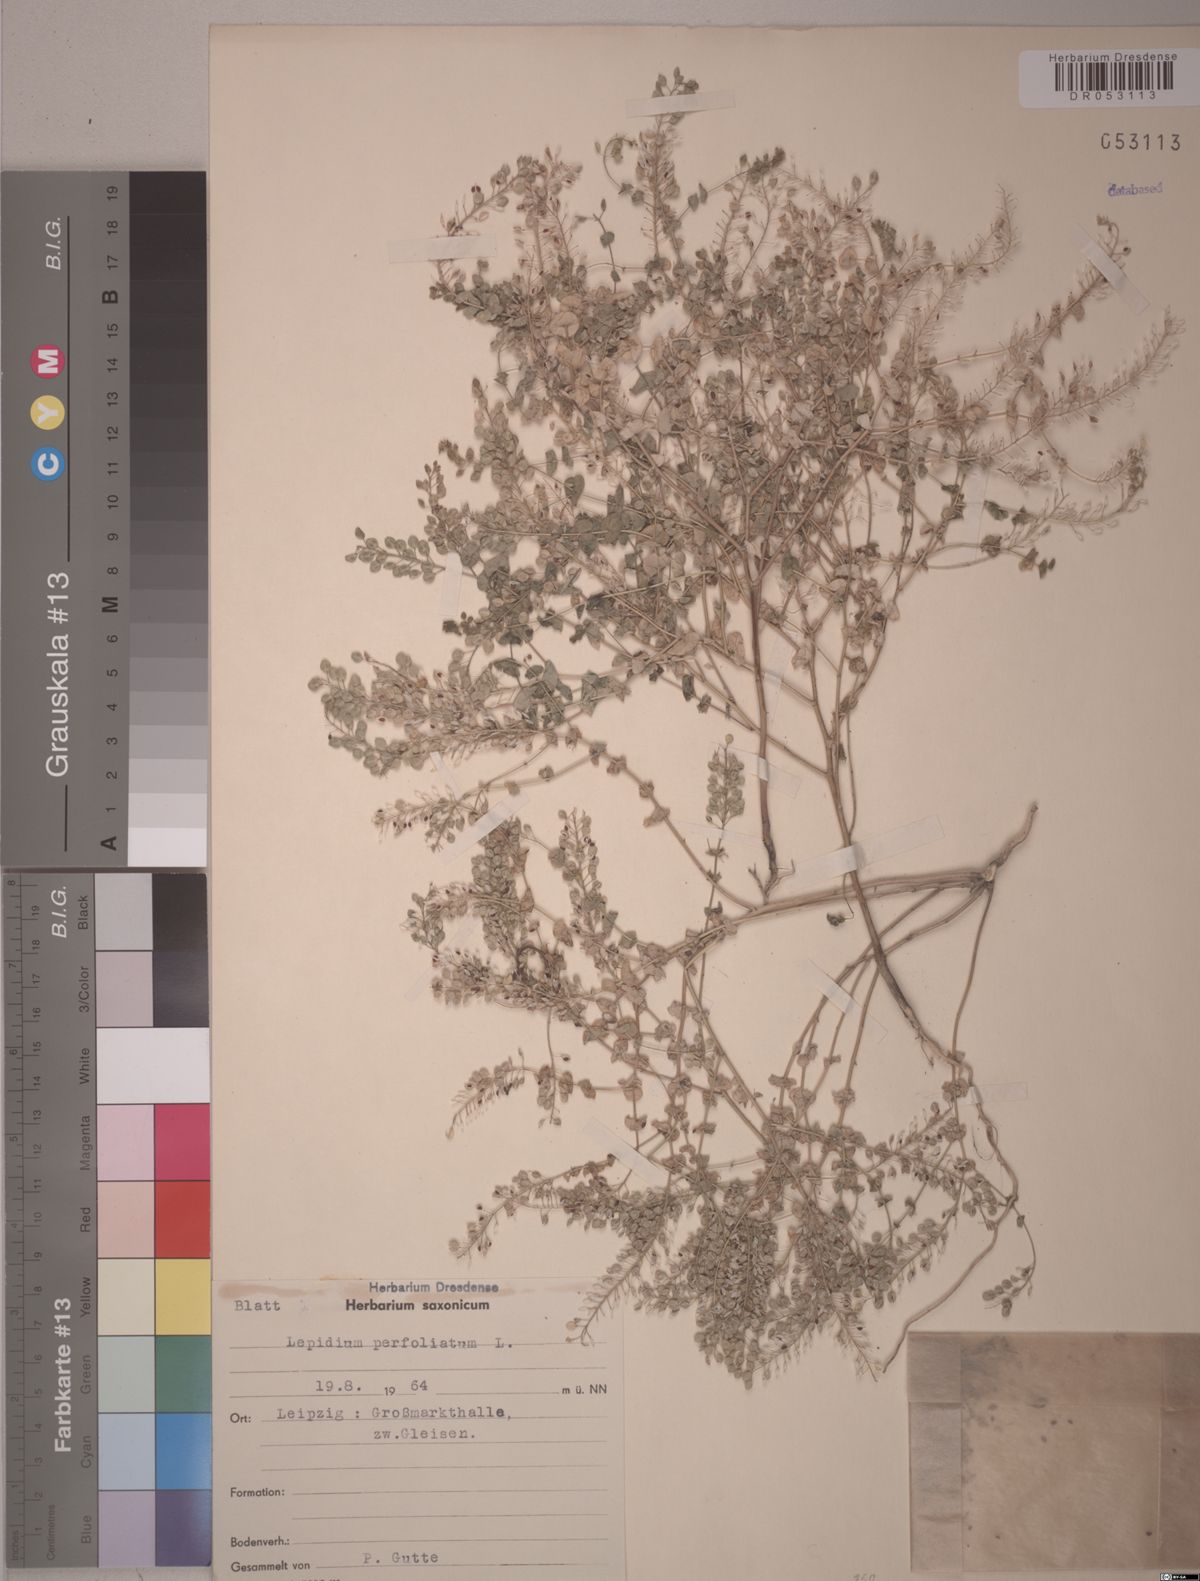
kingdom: Plantae
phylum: Tracheophyta
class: Magnoliopsida
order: Brassicales
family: Brassicaceae
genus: Lepidium
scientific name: Lepidium perfoliatum
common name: Perfoliate pepperwort
